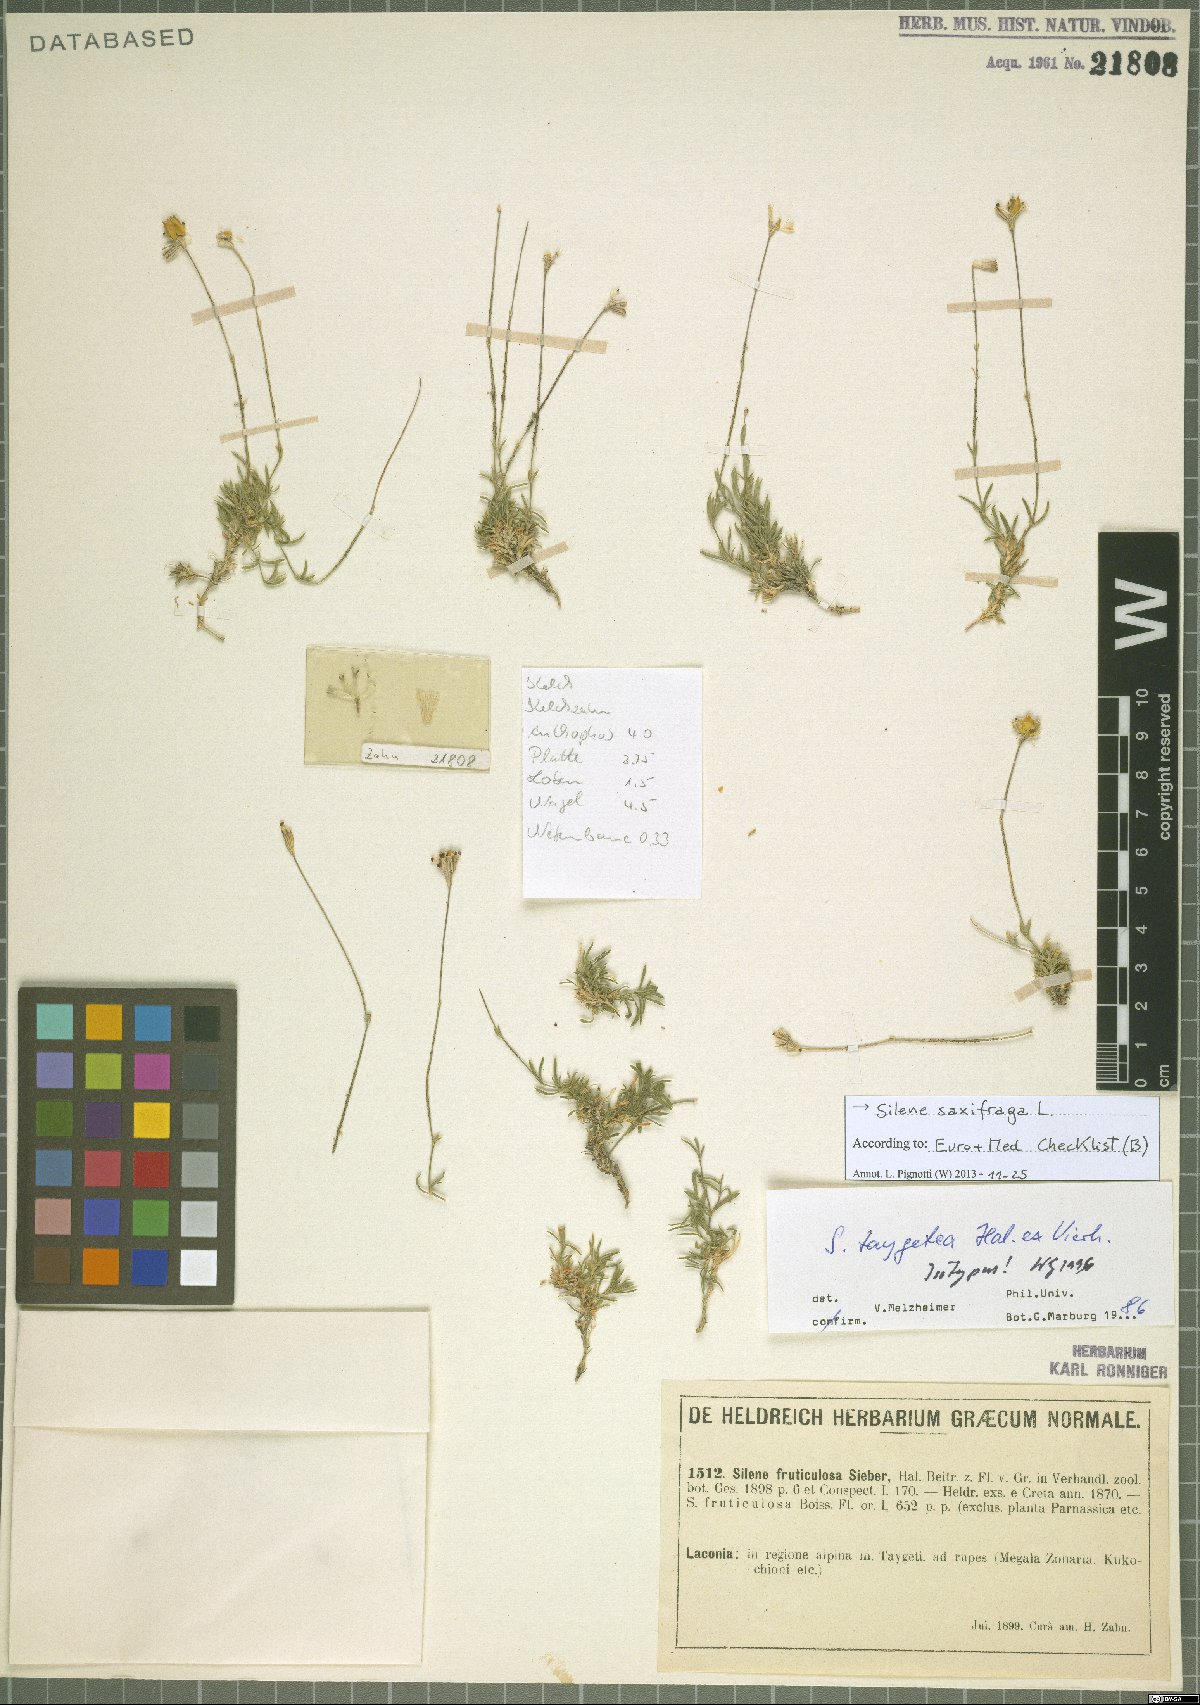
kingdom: Plantae
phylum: Tracheophyta
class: Magnoliopsida
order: Caryophyllales
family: Caryophyllaceae
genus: Silene
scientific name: Silene saxifraga
